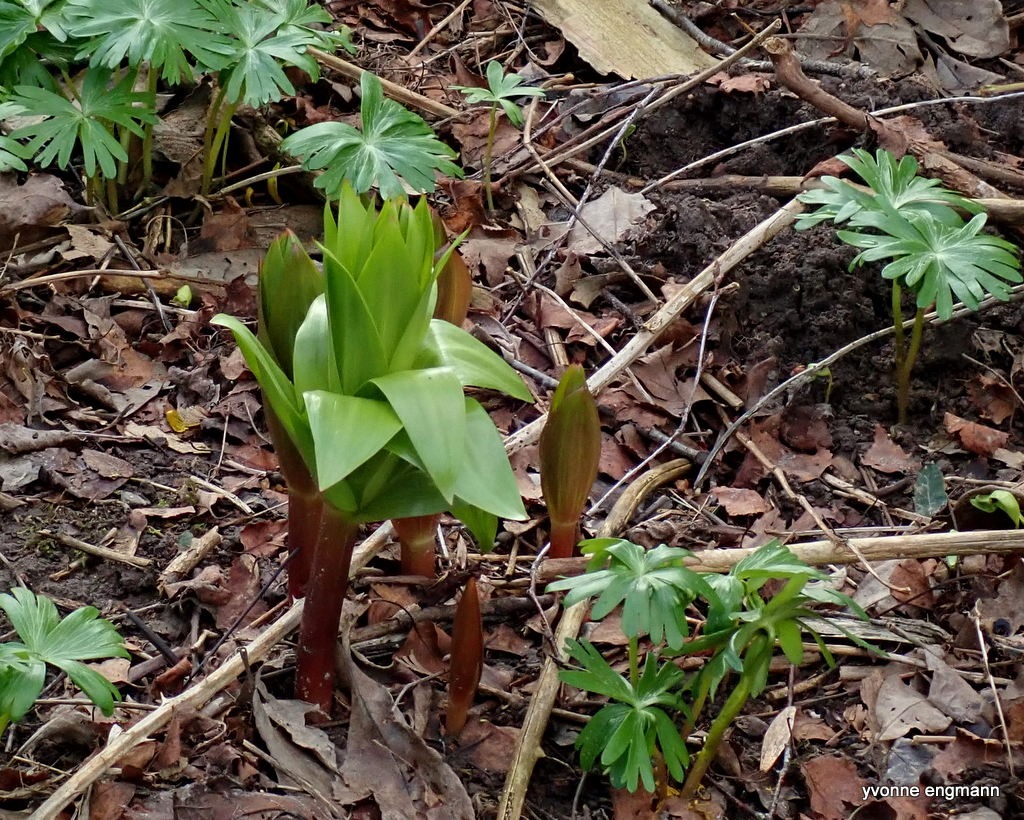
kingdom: Plantae
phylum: Tracheophyta
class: Liliopsida
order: Liliales
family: Liliaceae
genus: Fritillaria
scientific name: Fritillaria imperialis
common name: Kejserkrone
